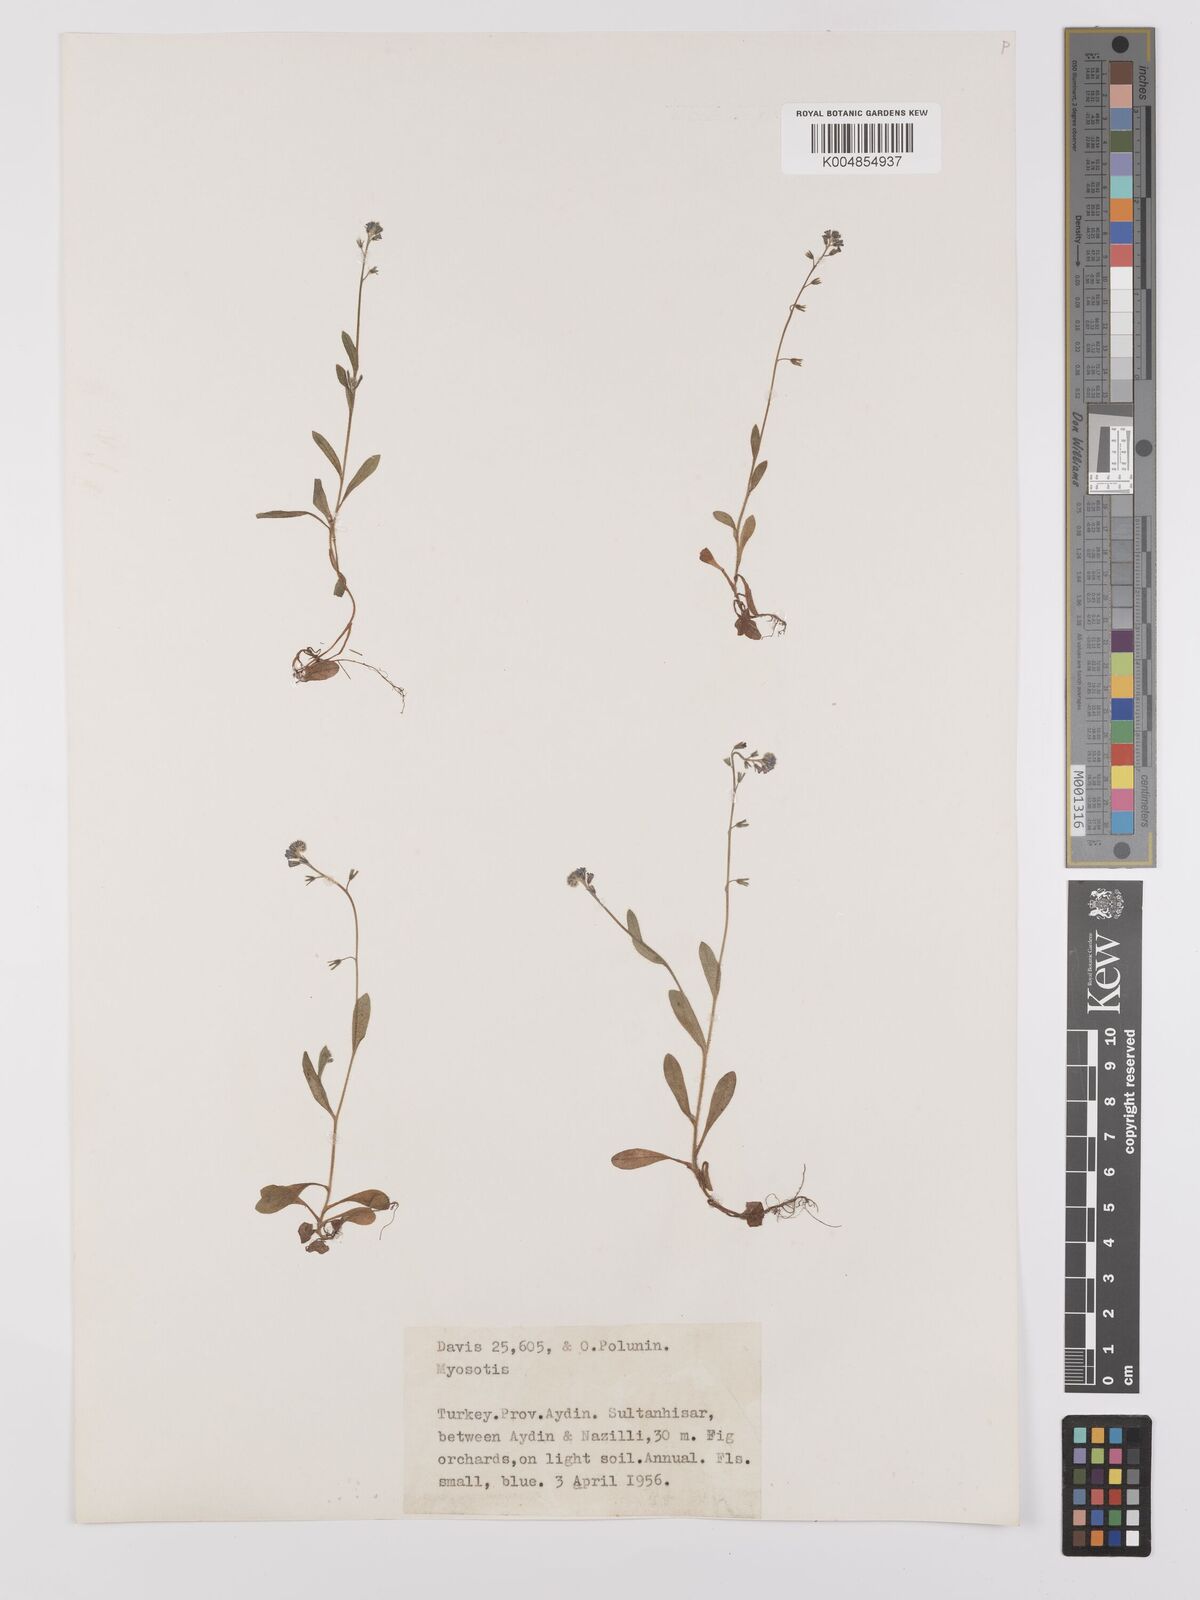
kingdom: Plantae
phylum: Tracheophyta
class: Magnoliopsida
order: Boraginales
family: Boraginaceae
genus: Myosotis
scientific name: Myosotis
